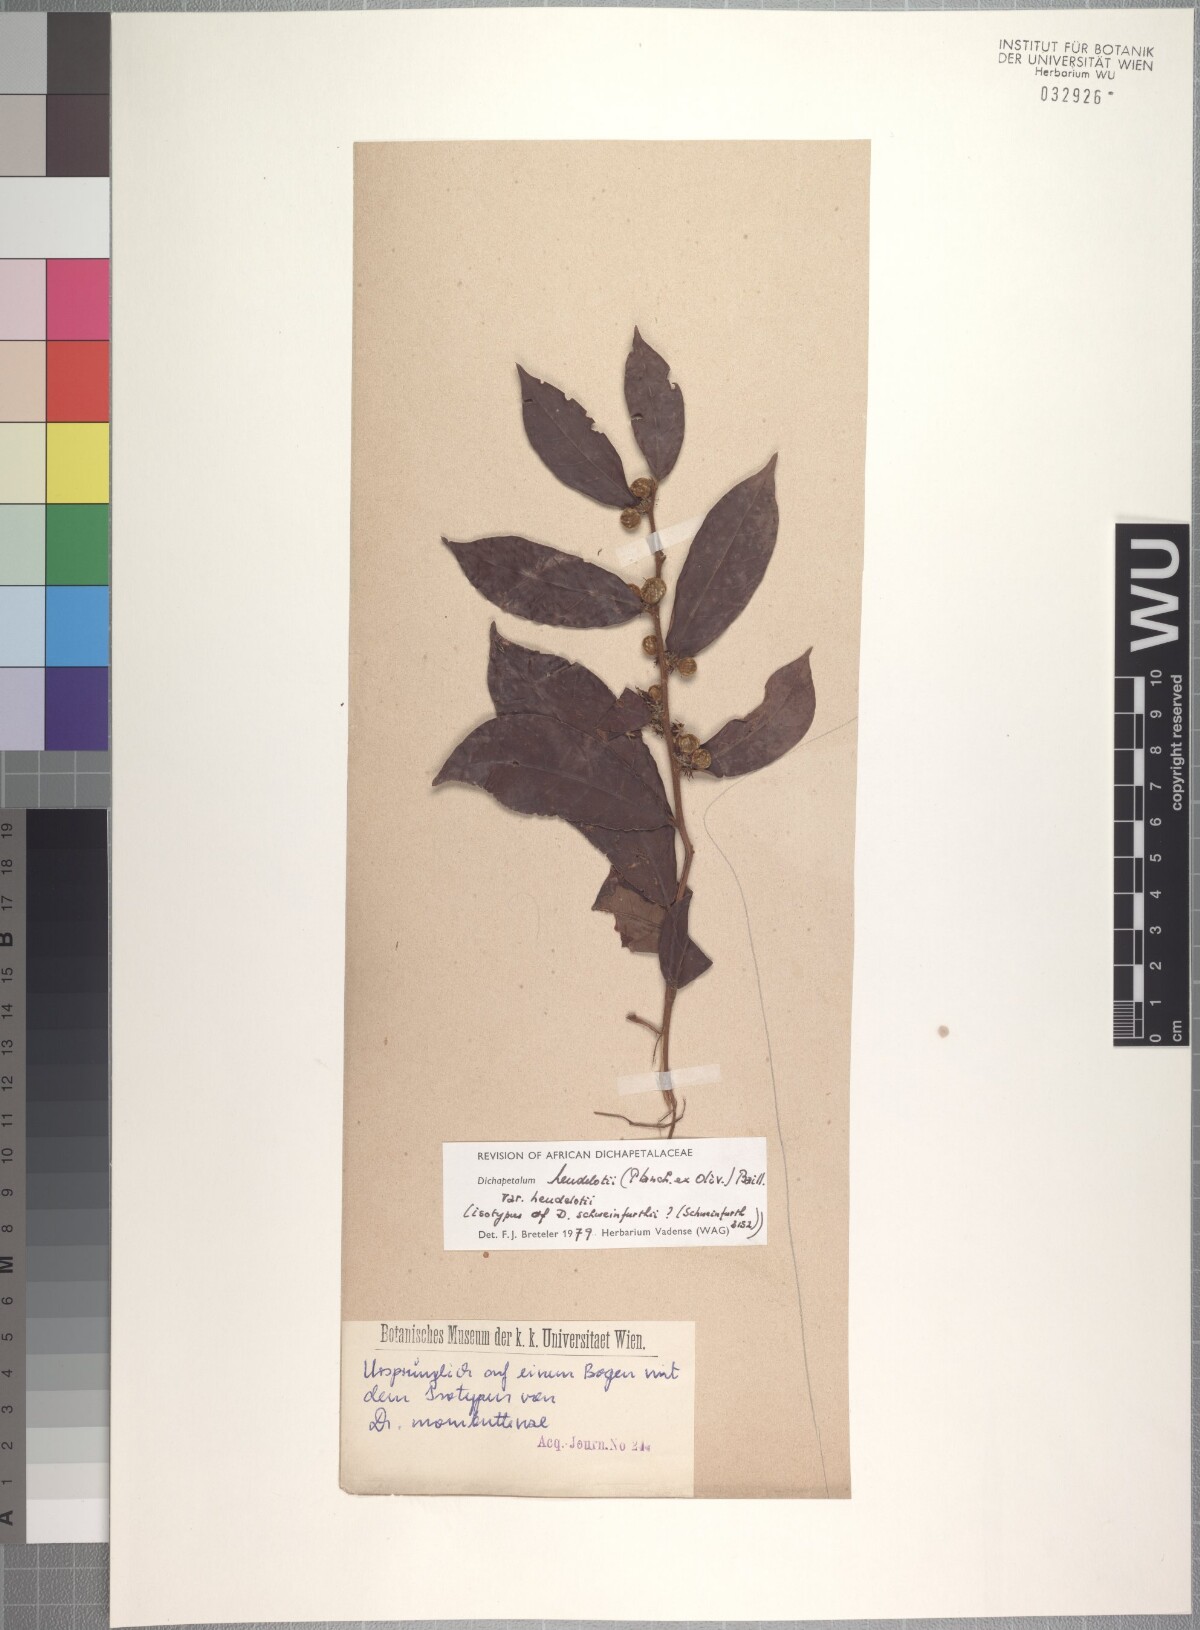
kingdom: Plantae
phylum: Tracheophyta
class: Magnoliopsida
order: Malpighiales
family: Dichapetalaceae
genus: Dichapetalum
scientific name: Dichapetalum heudelotii
